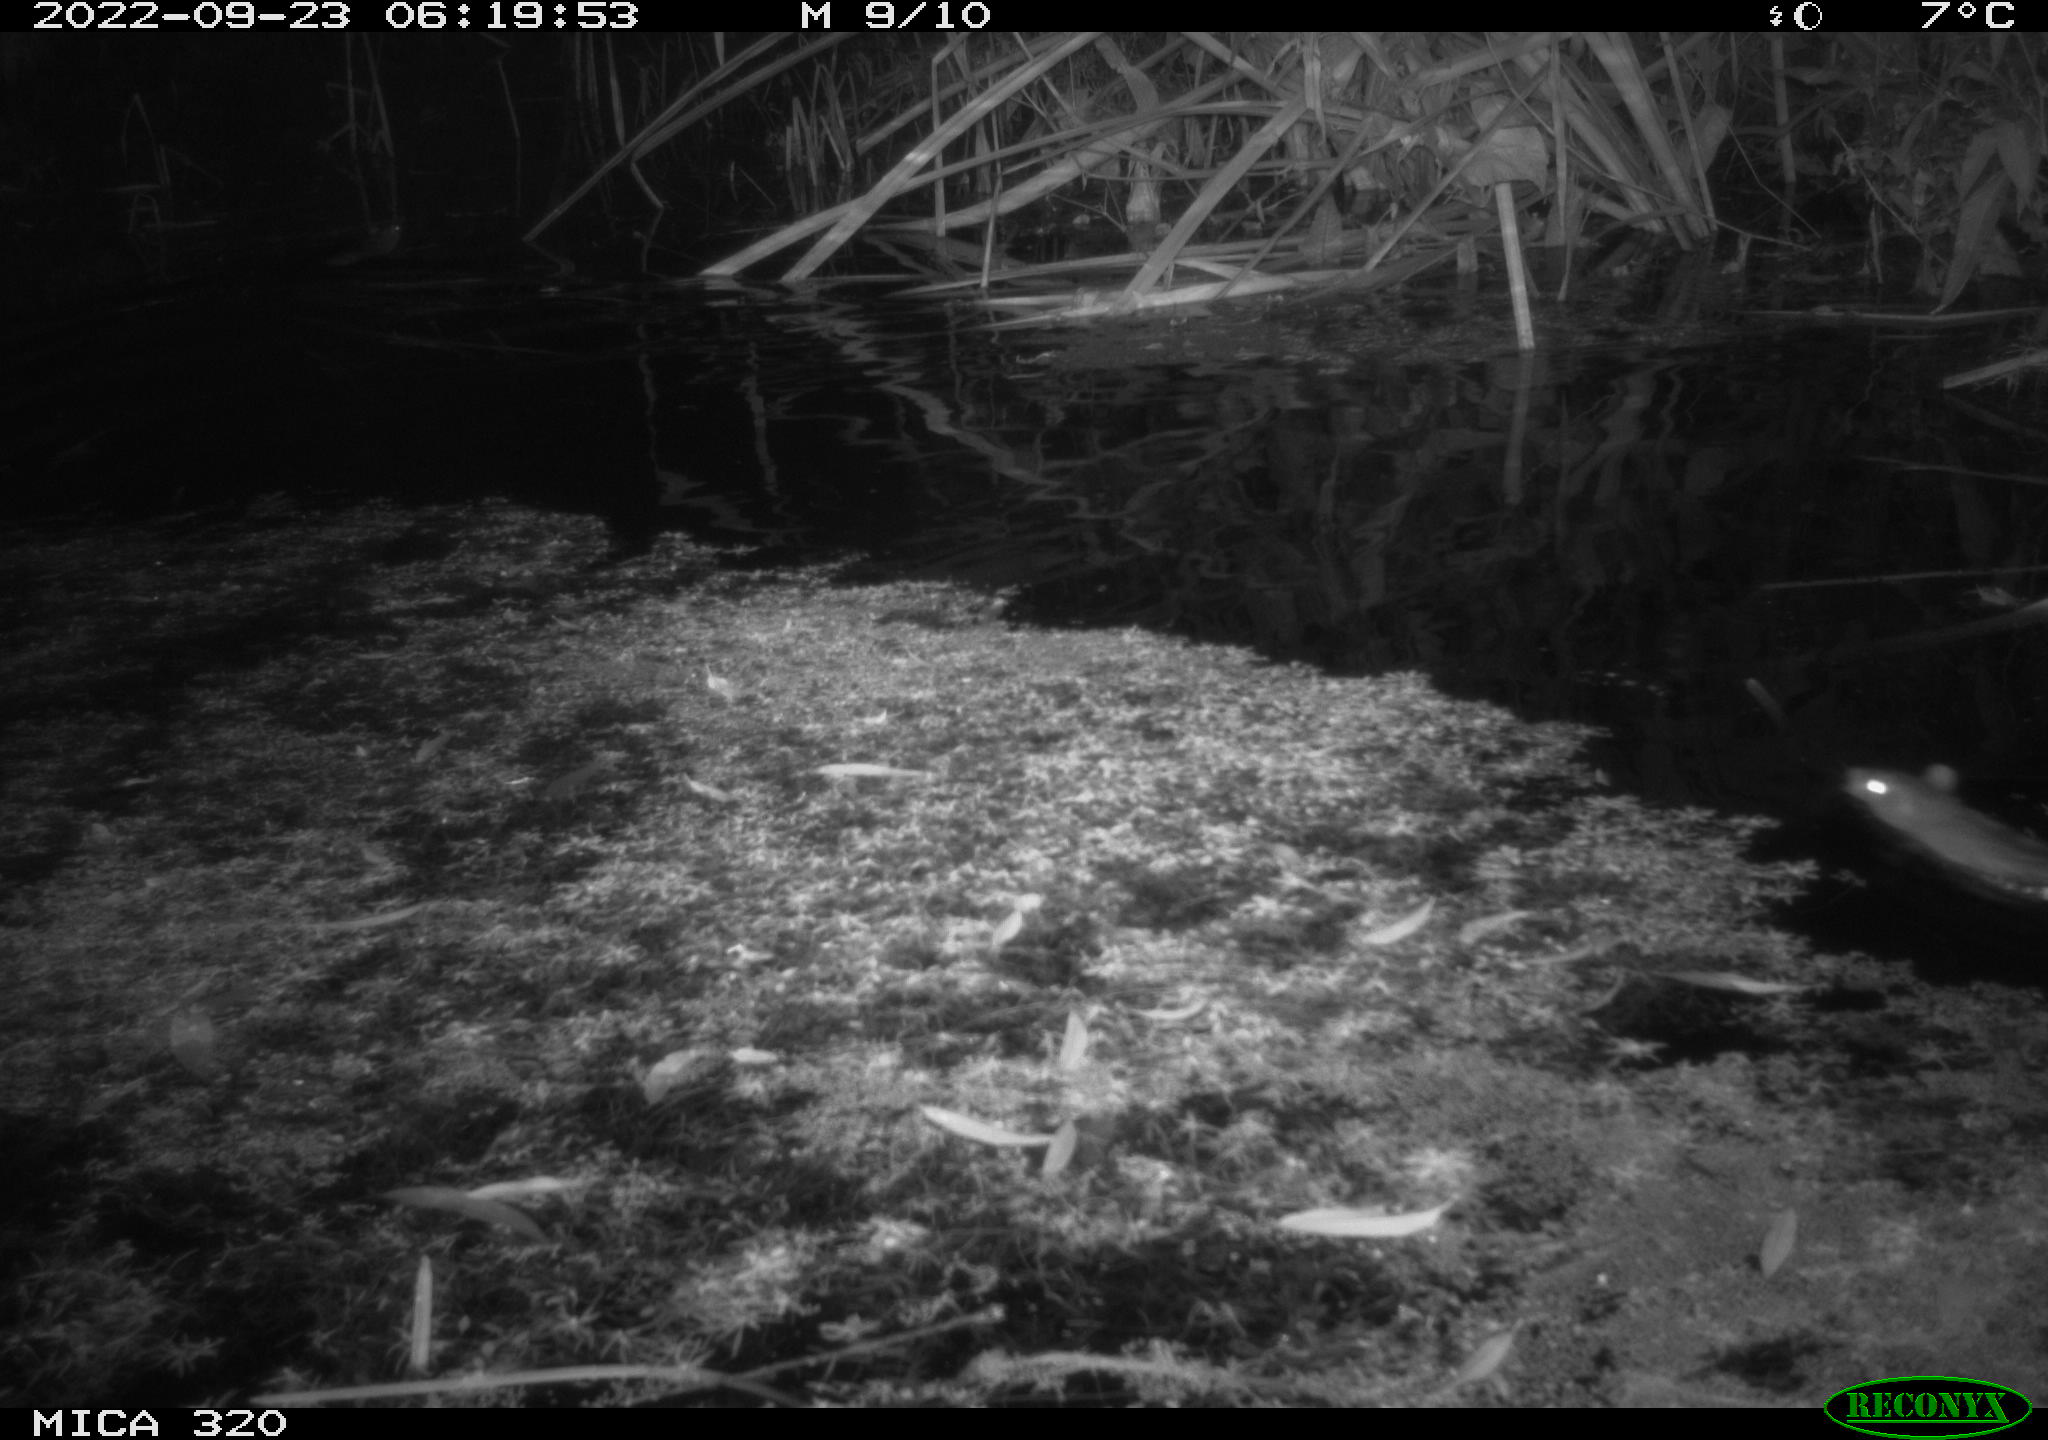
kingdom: Animalia
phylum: Chordata
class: Mammalia
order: Rodentia
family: Muridae
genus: Rattus
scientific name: Rattus norvegicus
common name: Brown rat
